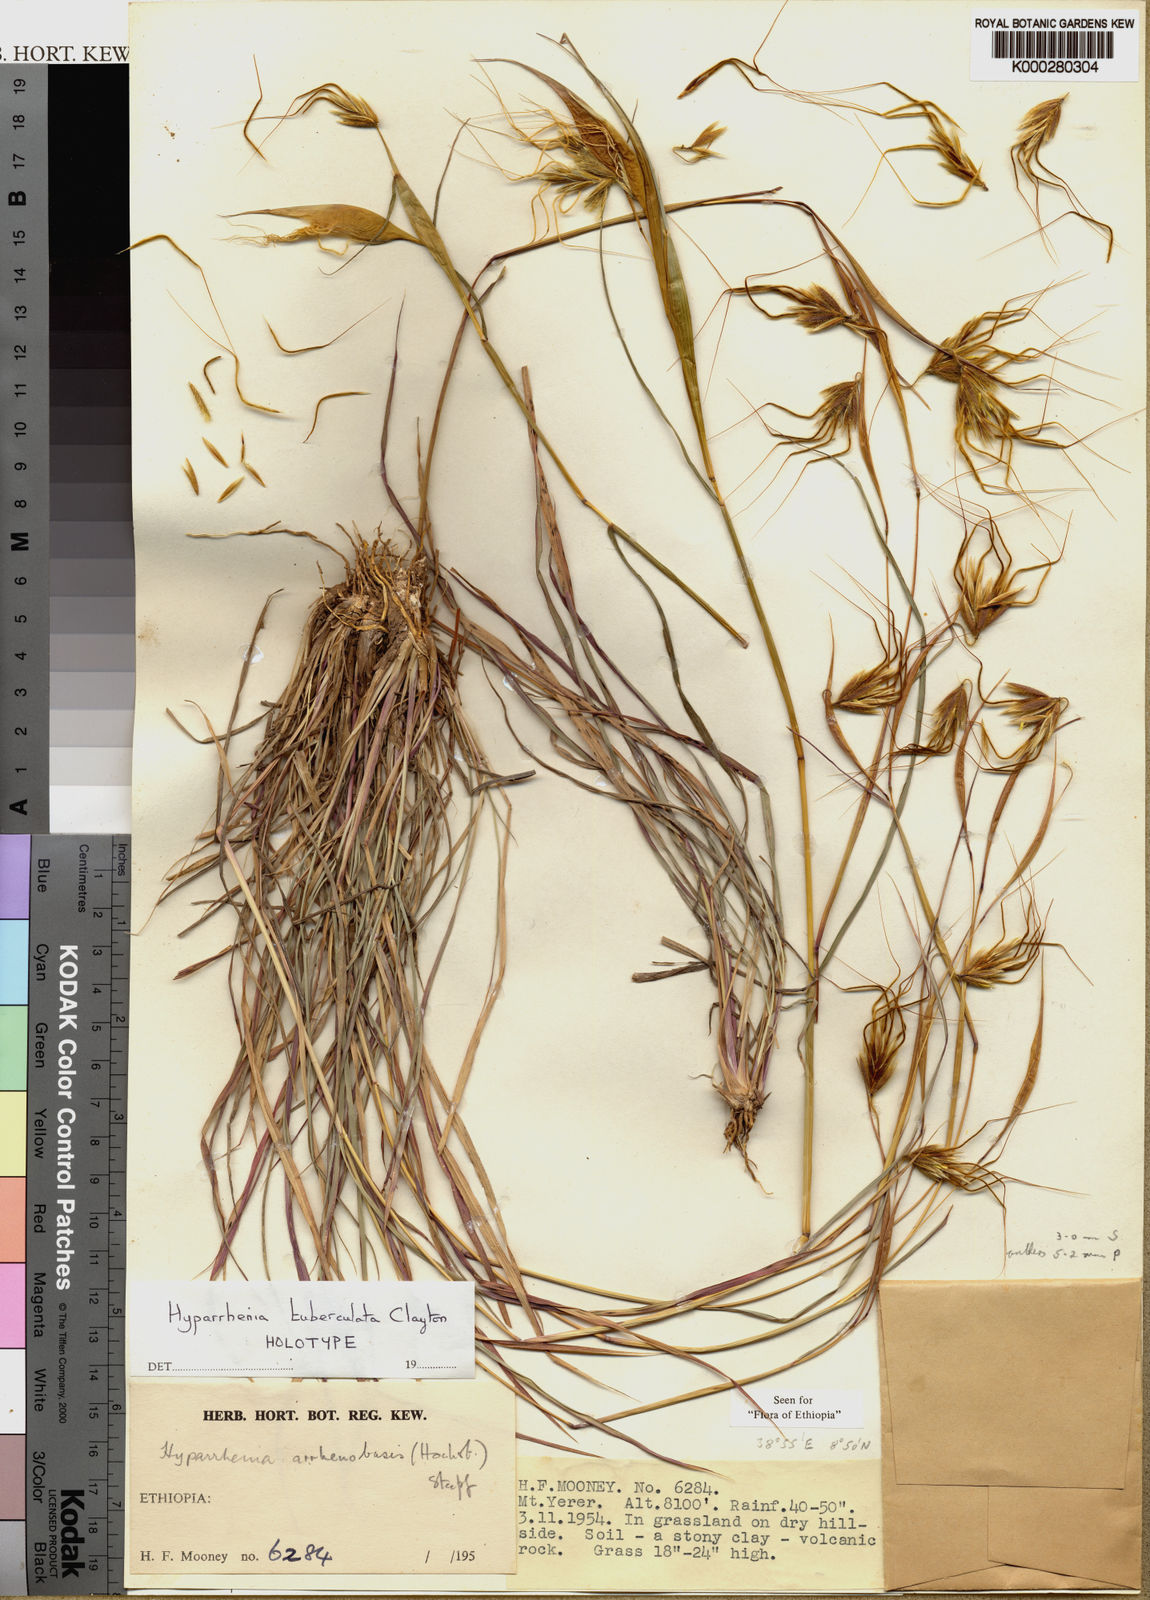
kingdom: Plantae
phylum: Tracheophyta
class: Liliopsida
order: Poales
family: Poaceae
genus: Hyparrhenia
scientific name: Hyparrhenia tuberculata
